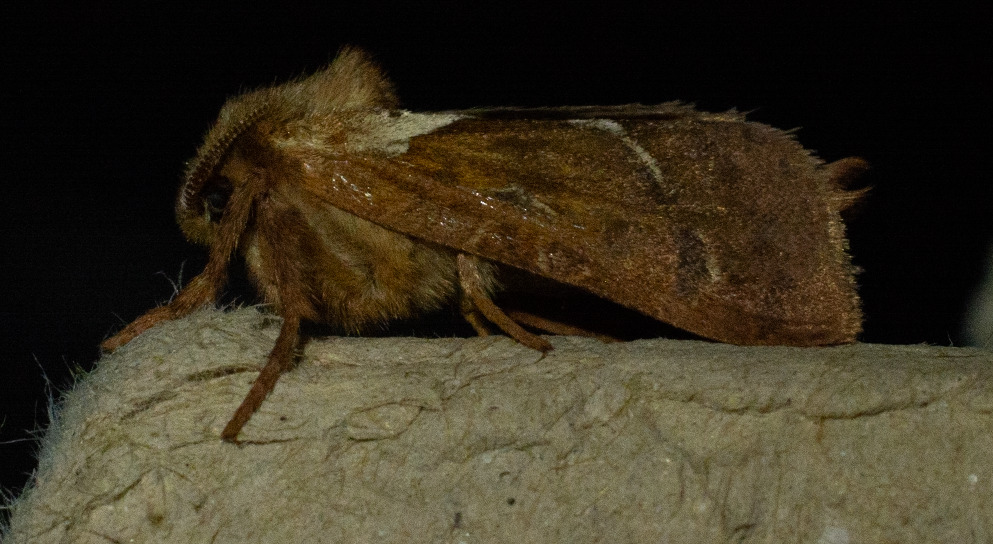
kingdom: Animalia
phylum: Arthropoda
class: Insecta
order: Lepidoptera
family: Hepialidae
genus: Triodia
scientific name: Triodia sylvina
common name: Skræpperodæder
